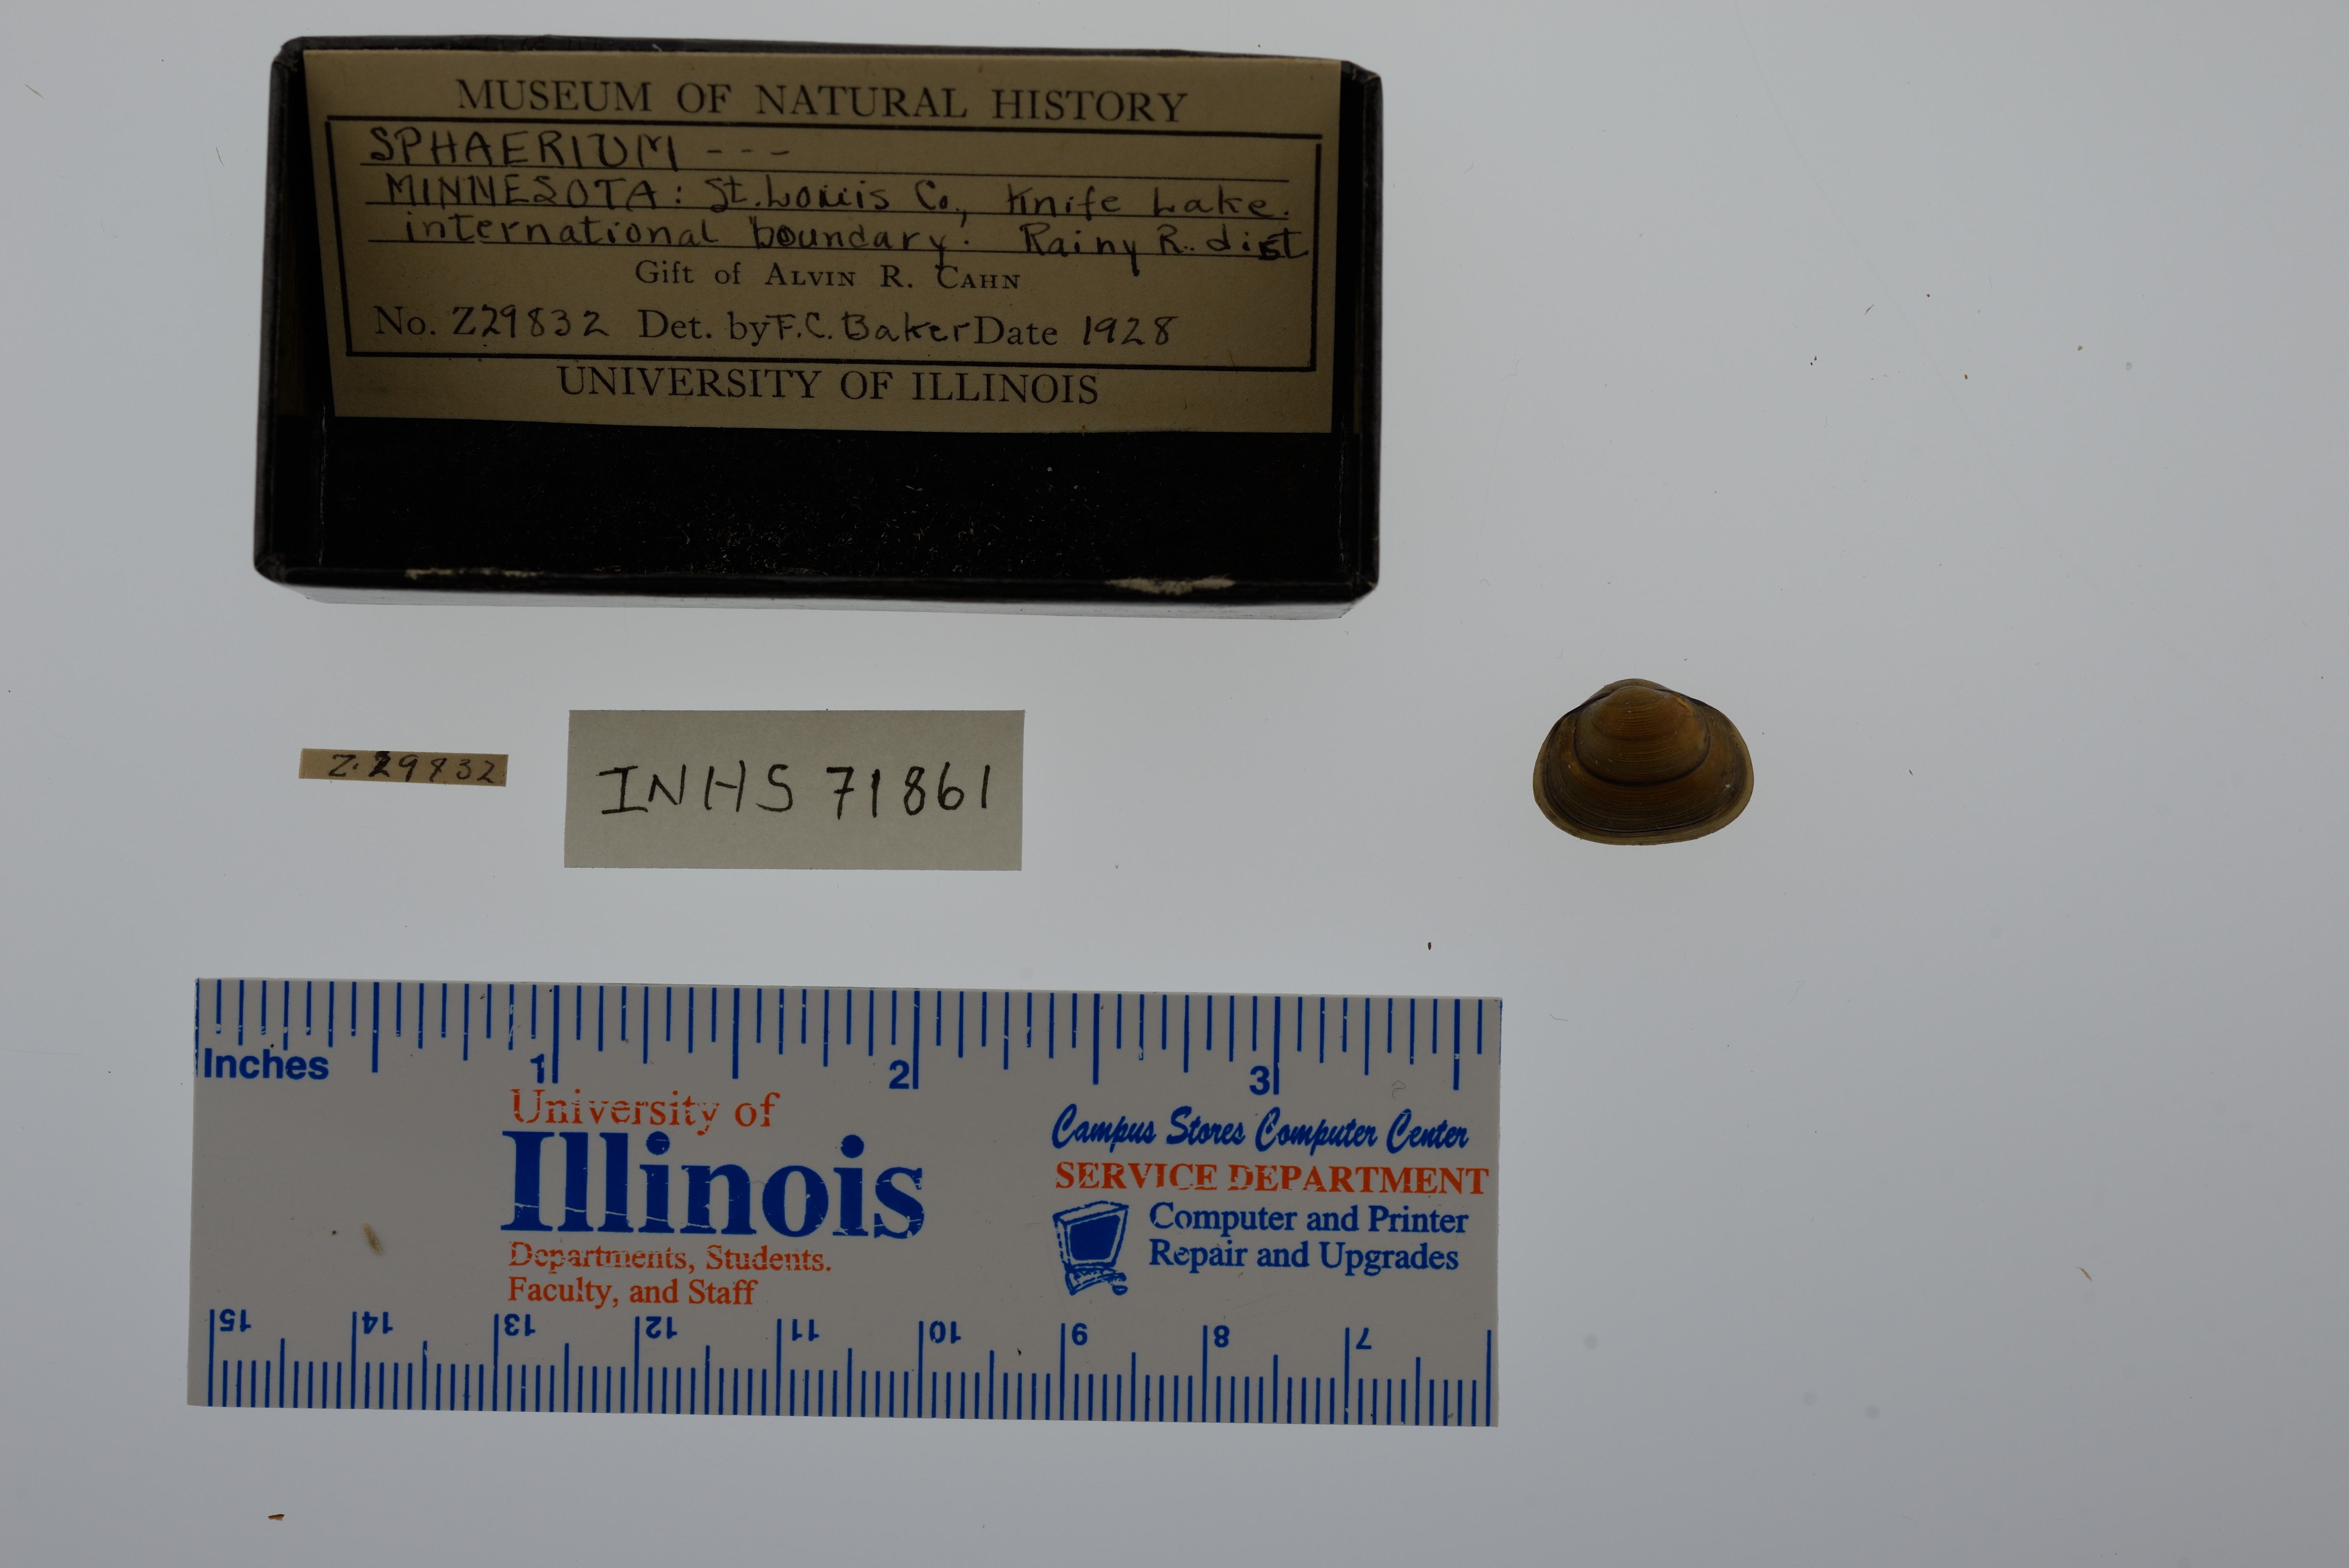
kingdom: Animalia
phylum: Mollusca
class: Bivalvia
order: Sphaeriida
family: Sphaeriidae
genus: Sphaerium
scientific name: Sphaerium
